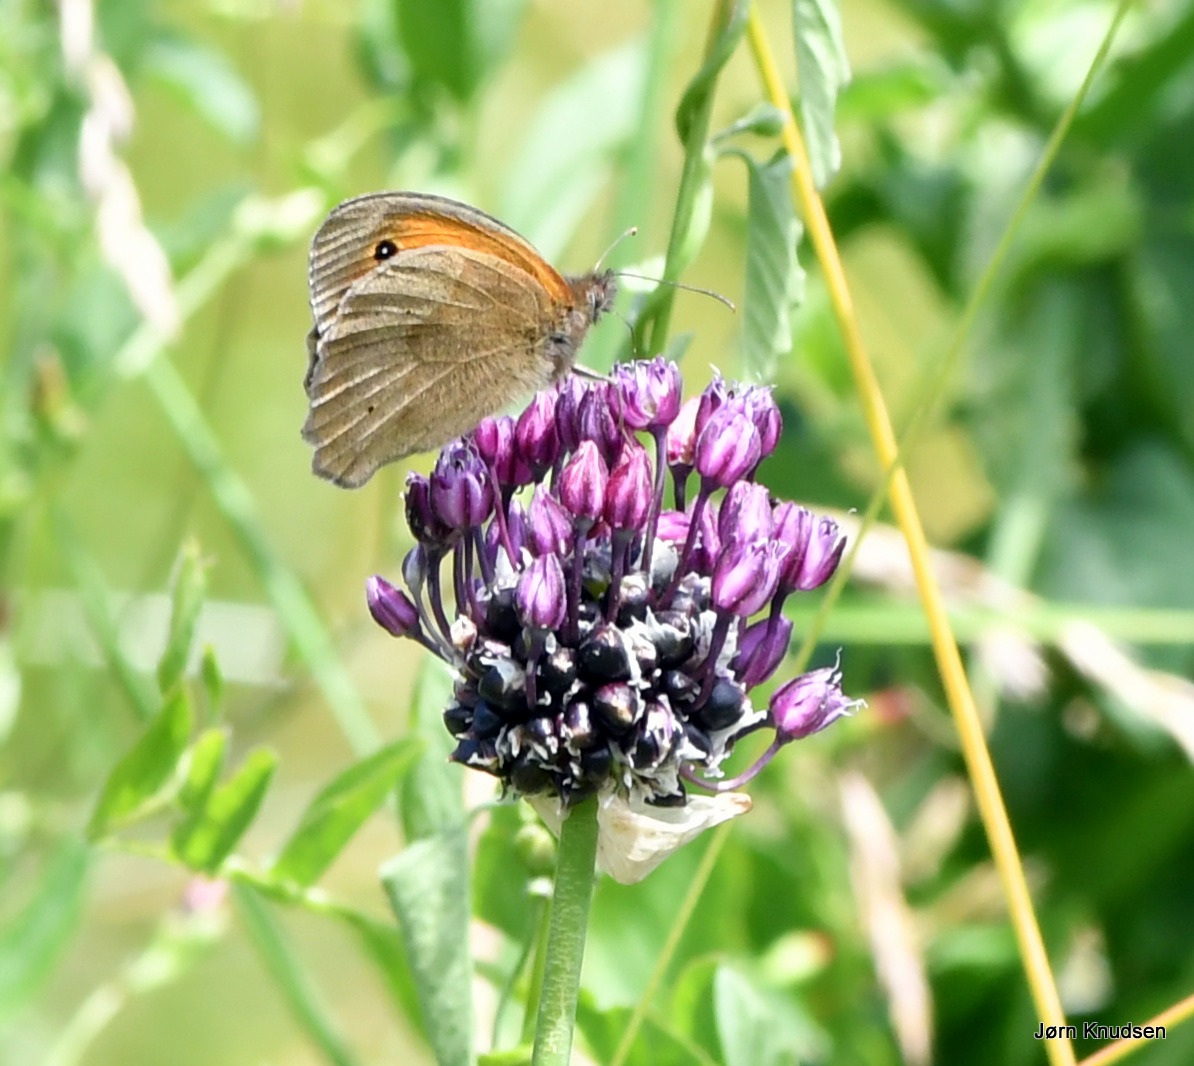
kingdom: Animalia
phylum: Arthropoda
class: Insecta
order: Lepidoptera
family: Nymphalidae
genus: Maniola
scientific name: Maniola jurtina
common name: Græsrandøje
